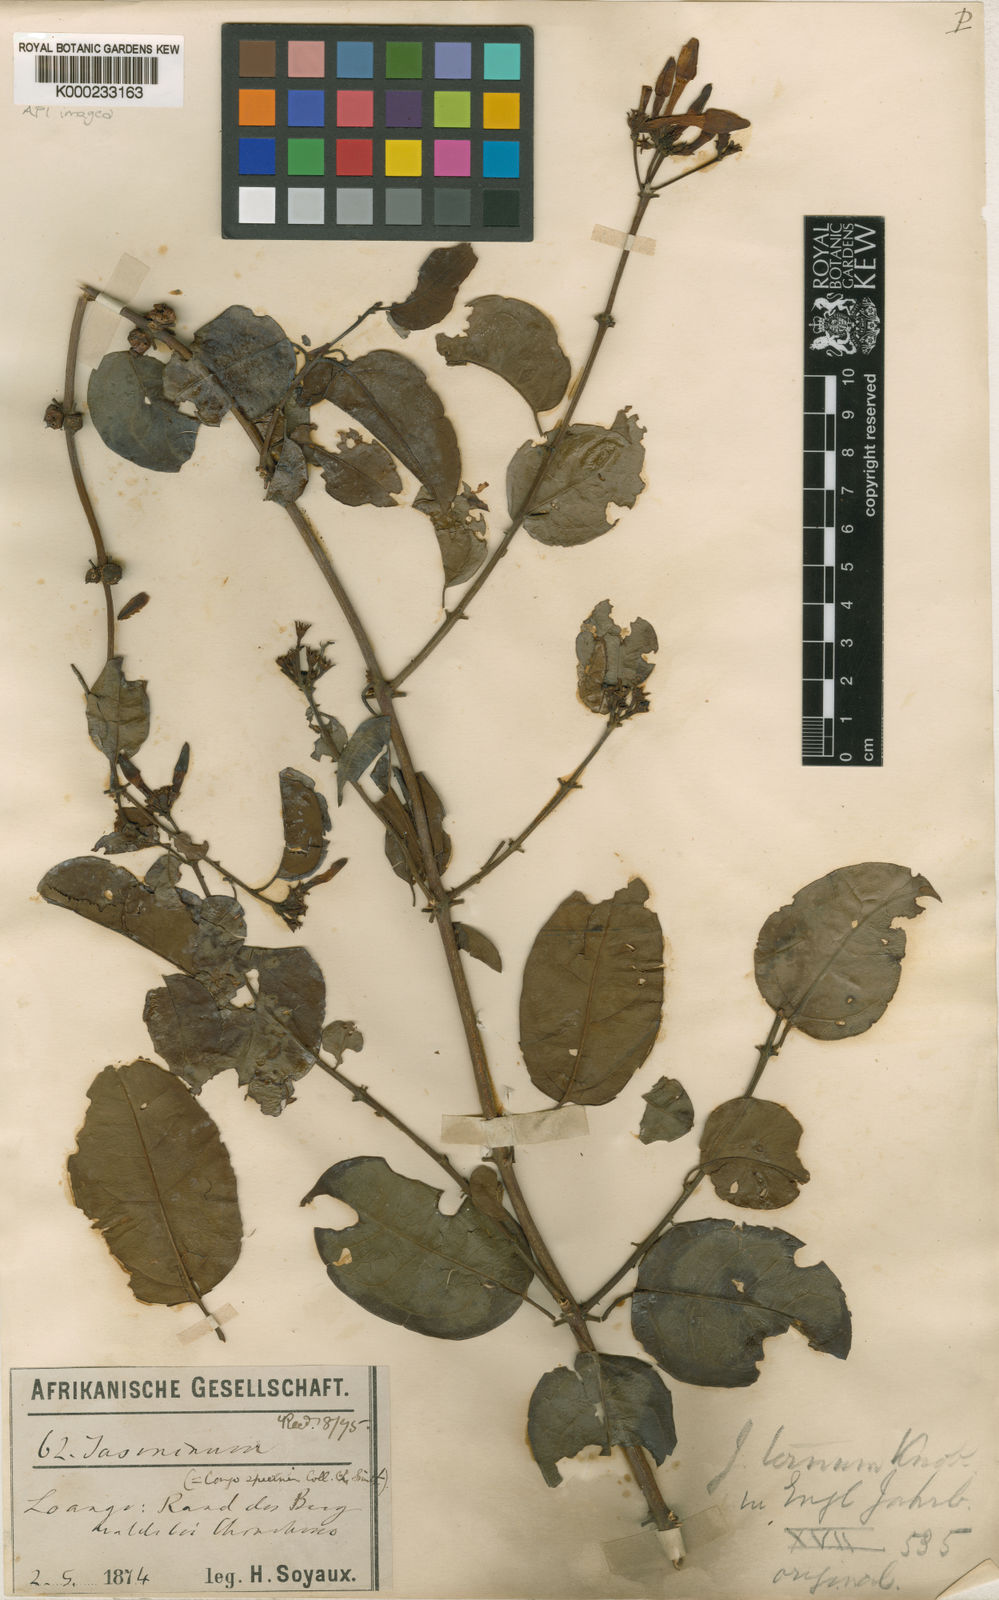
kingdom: Plantae
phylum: Tracheophyta
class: Magnoliopsida
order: Lamiales
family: Oleaceae
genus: Jasminum
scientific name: Jasminum dichotomum
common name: Gold coast jasmine
